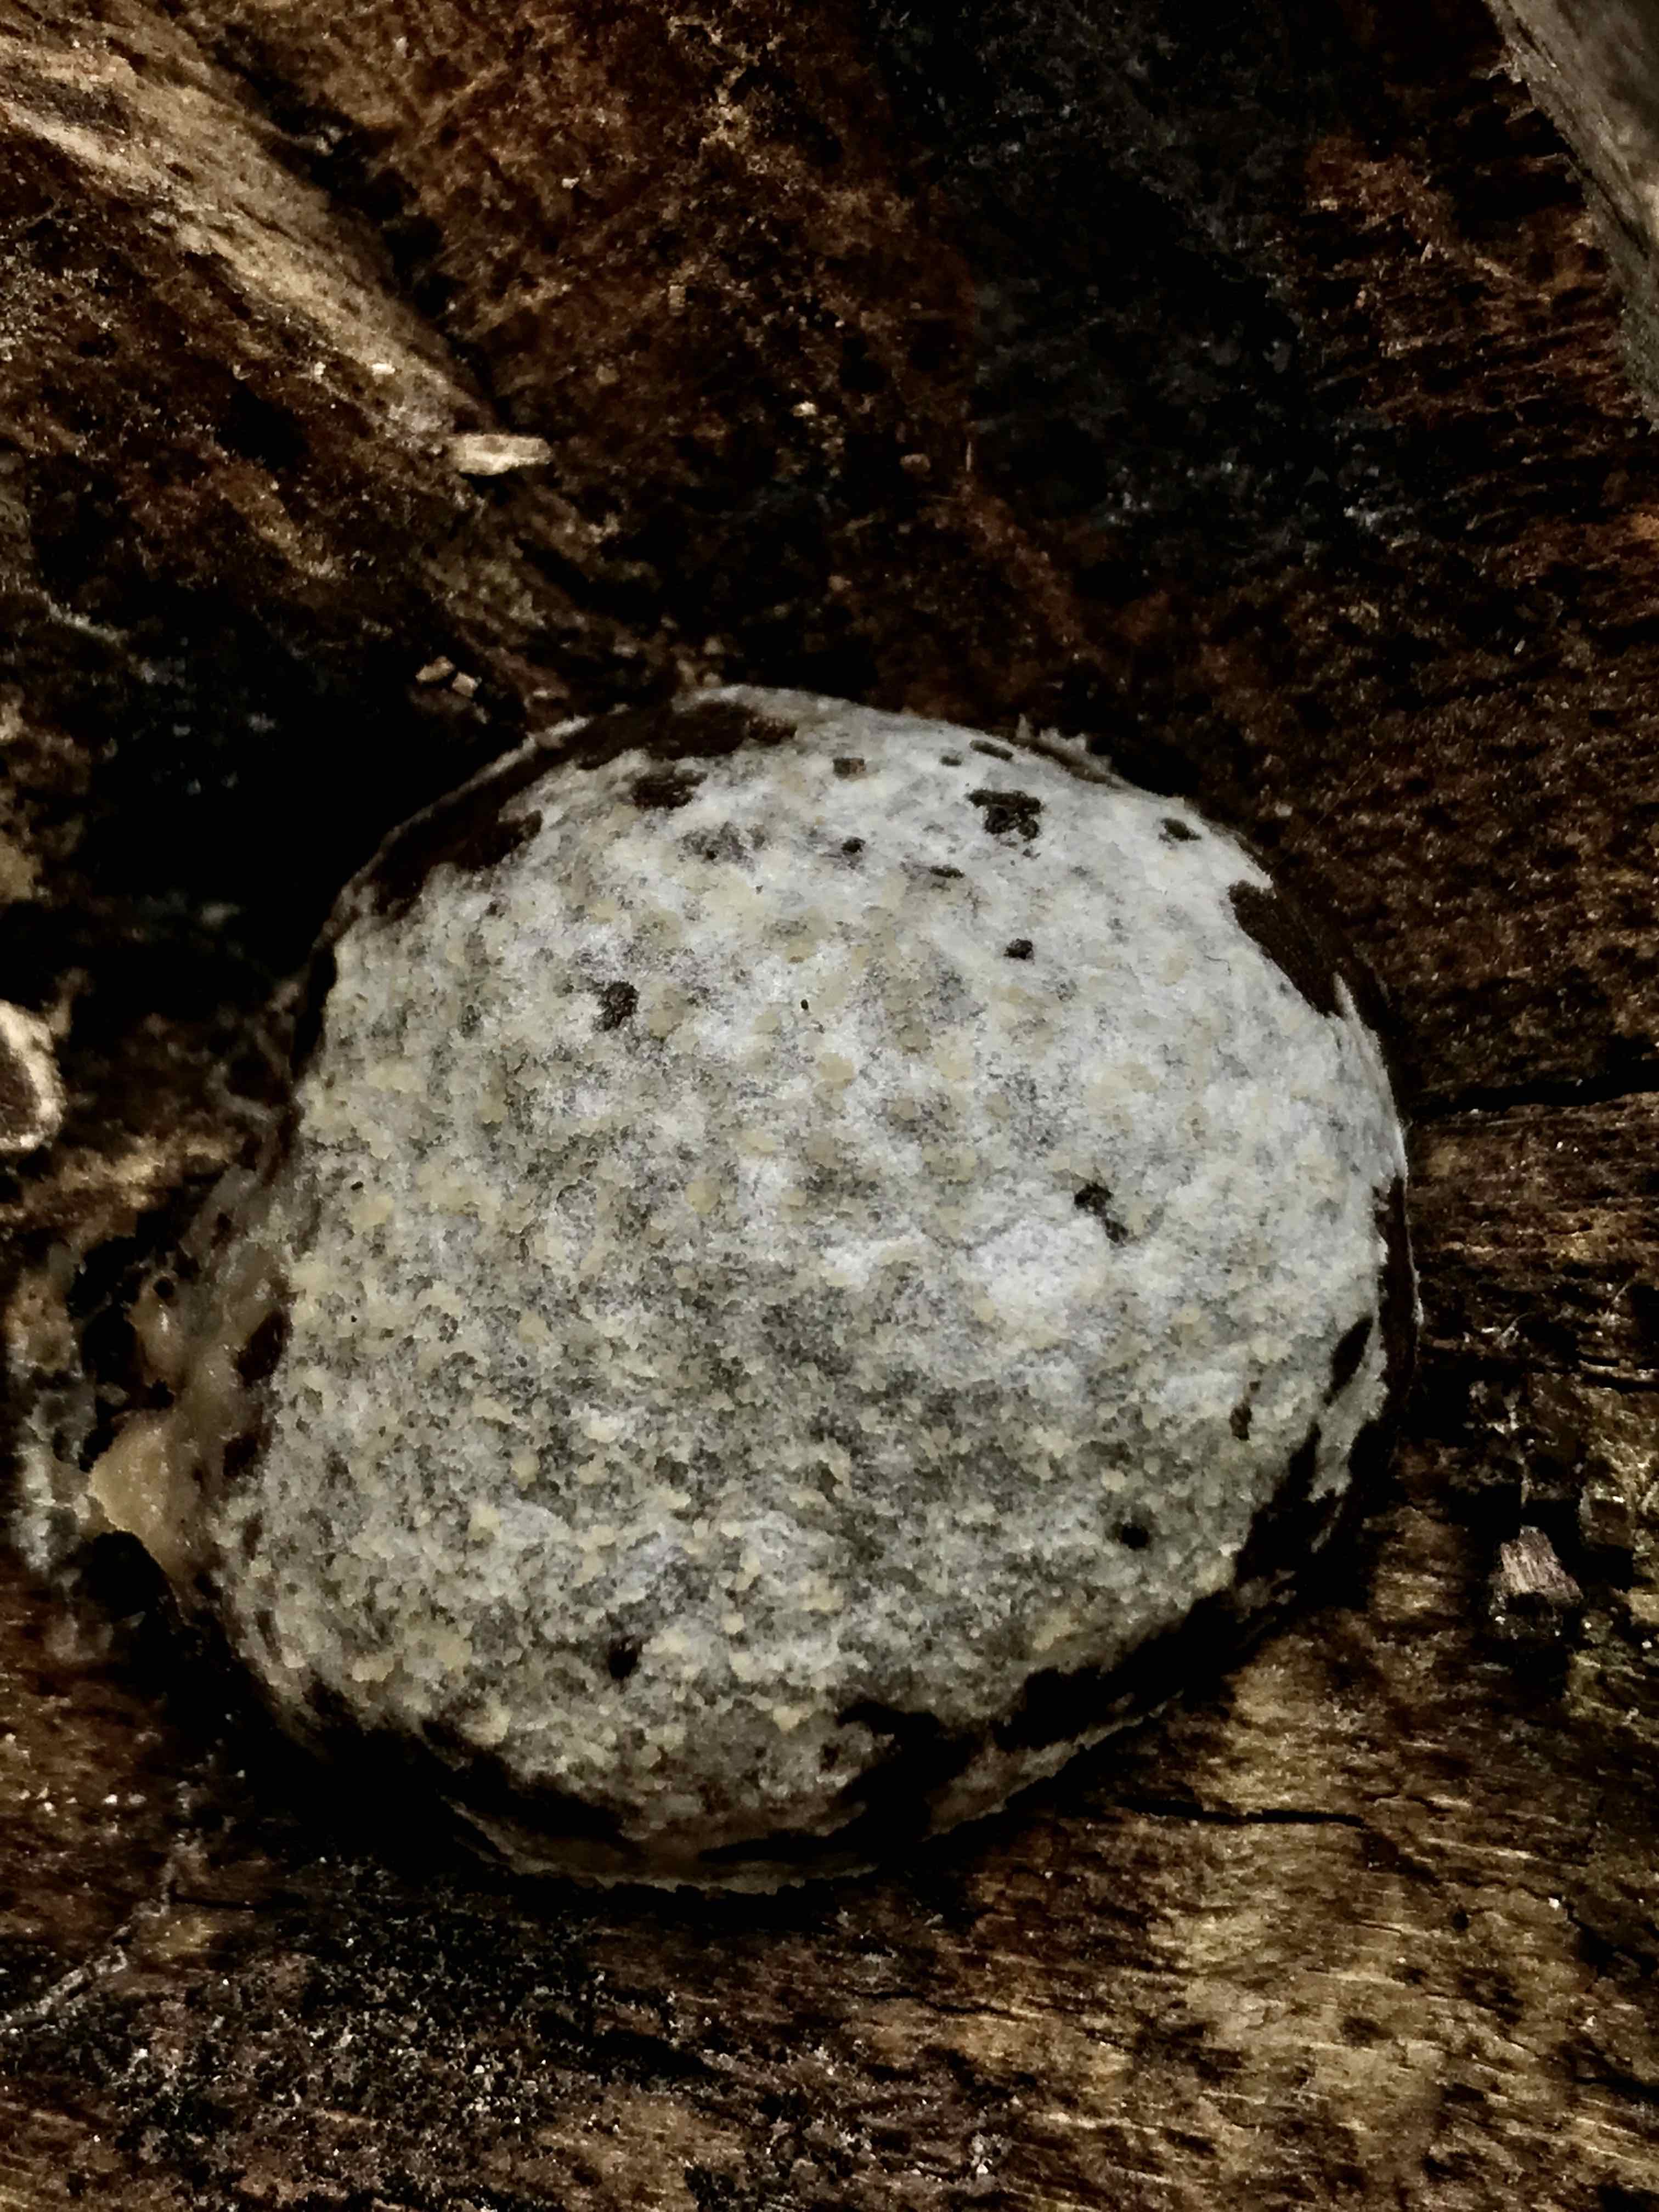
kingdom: Protozoa
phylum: Mycetozoa
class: Myxomycetes
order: Cribrariales
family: Tubiferaceae
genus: Reticularia
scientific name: Reticularia lycoperdon
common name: skinnende støvpude
